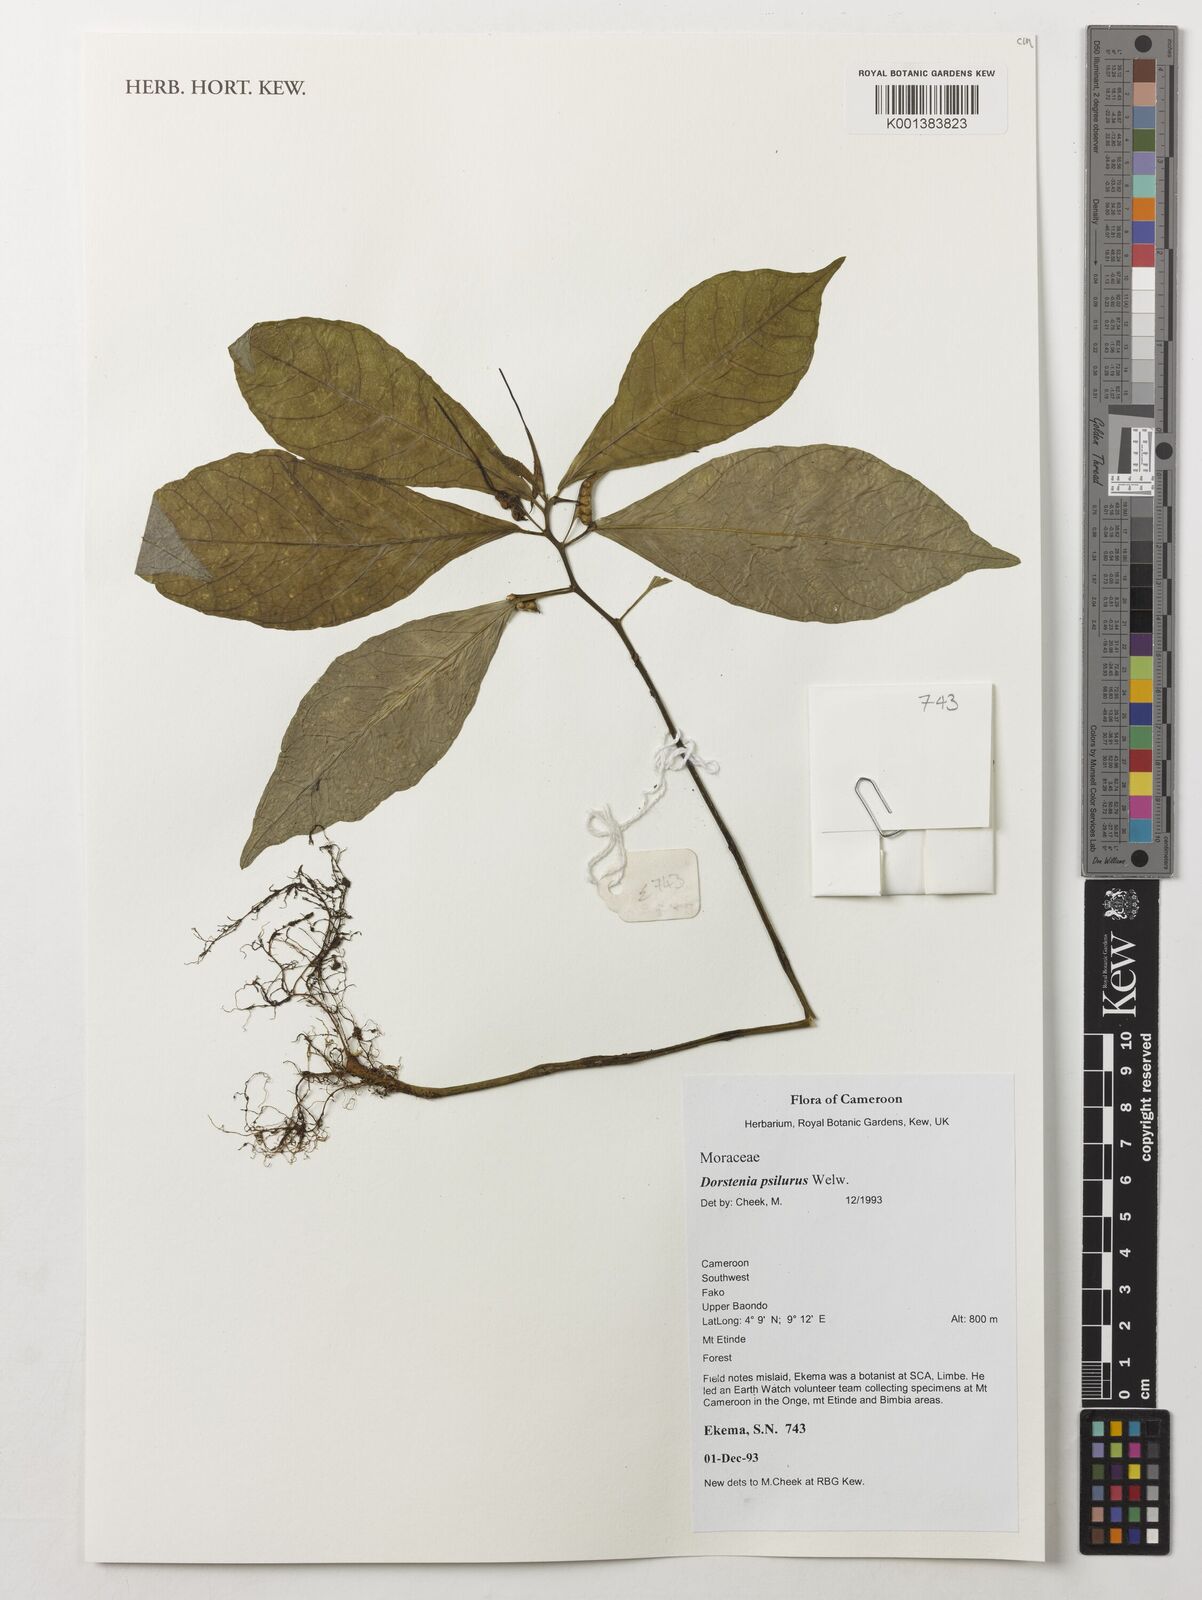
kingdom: Plantae
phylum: Tracheophyta
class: Magnoliopsida
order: Rosales
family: Moraceae
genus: Dorstenia
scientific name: Dorstenia psilurus
